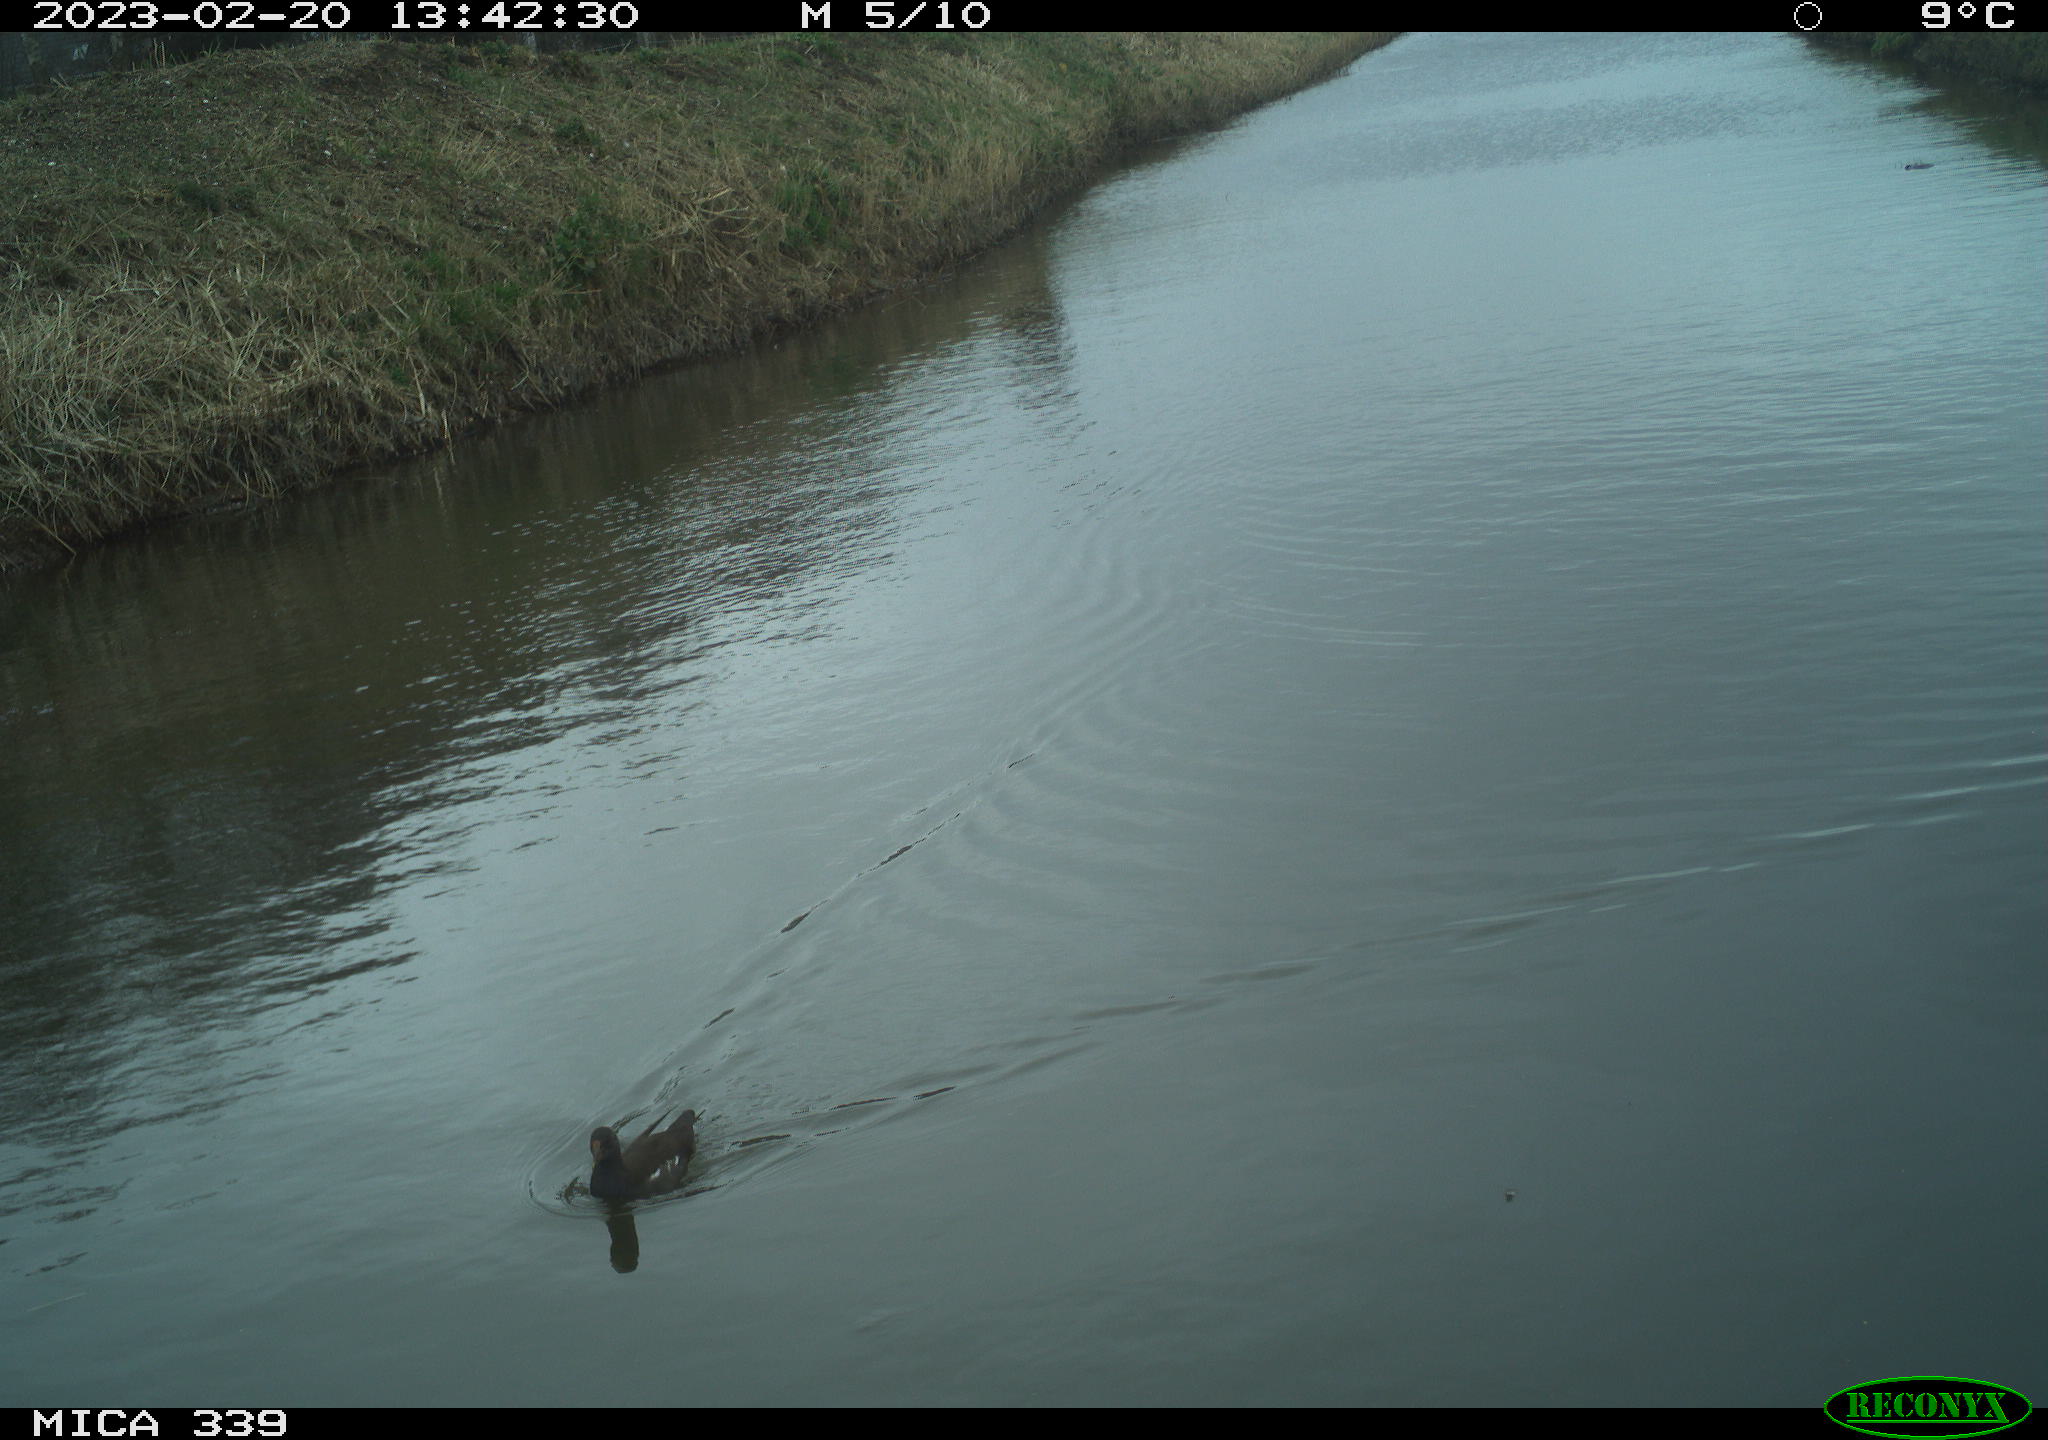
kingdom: Animalia
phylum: Chordata
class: Aves
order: Gruiformes
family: Rallidae
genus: Gallinula
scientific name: Gallinula chloropus
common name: Common moorhen
